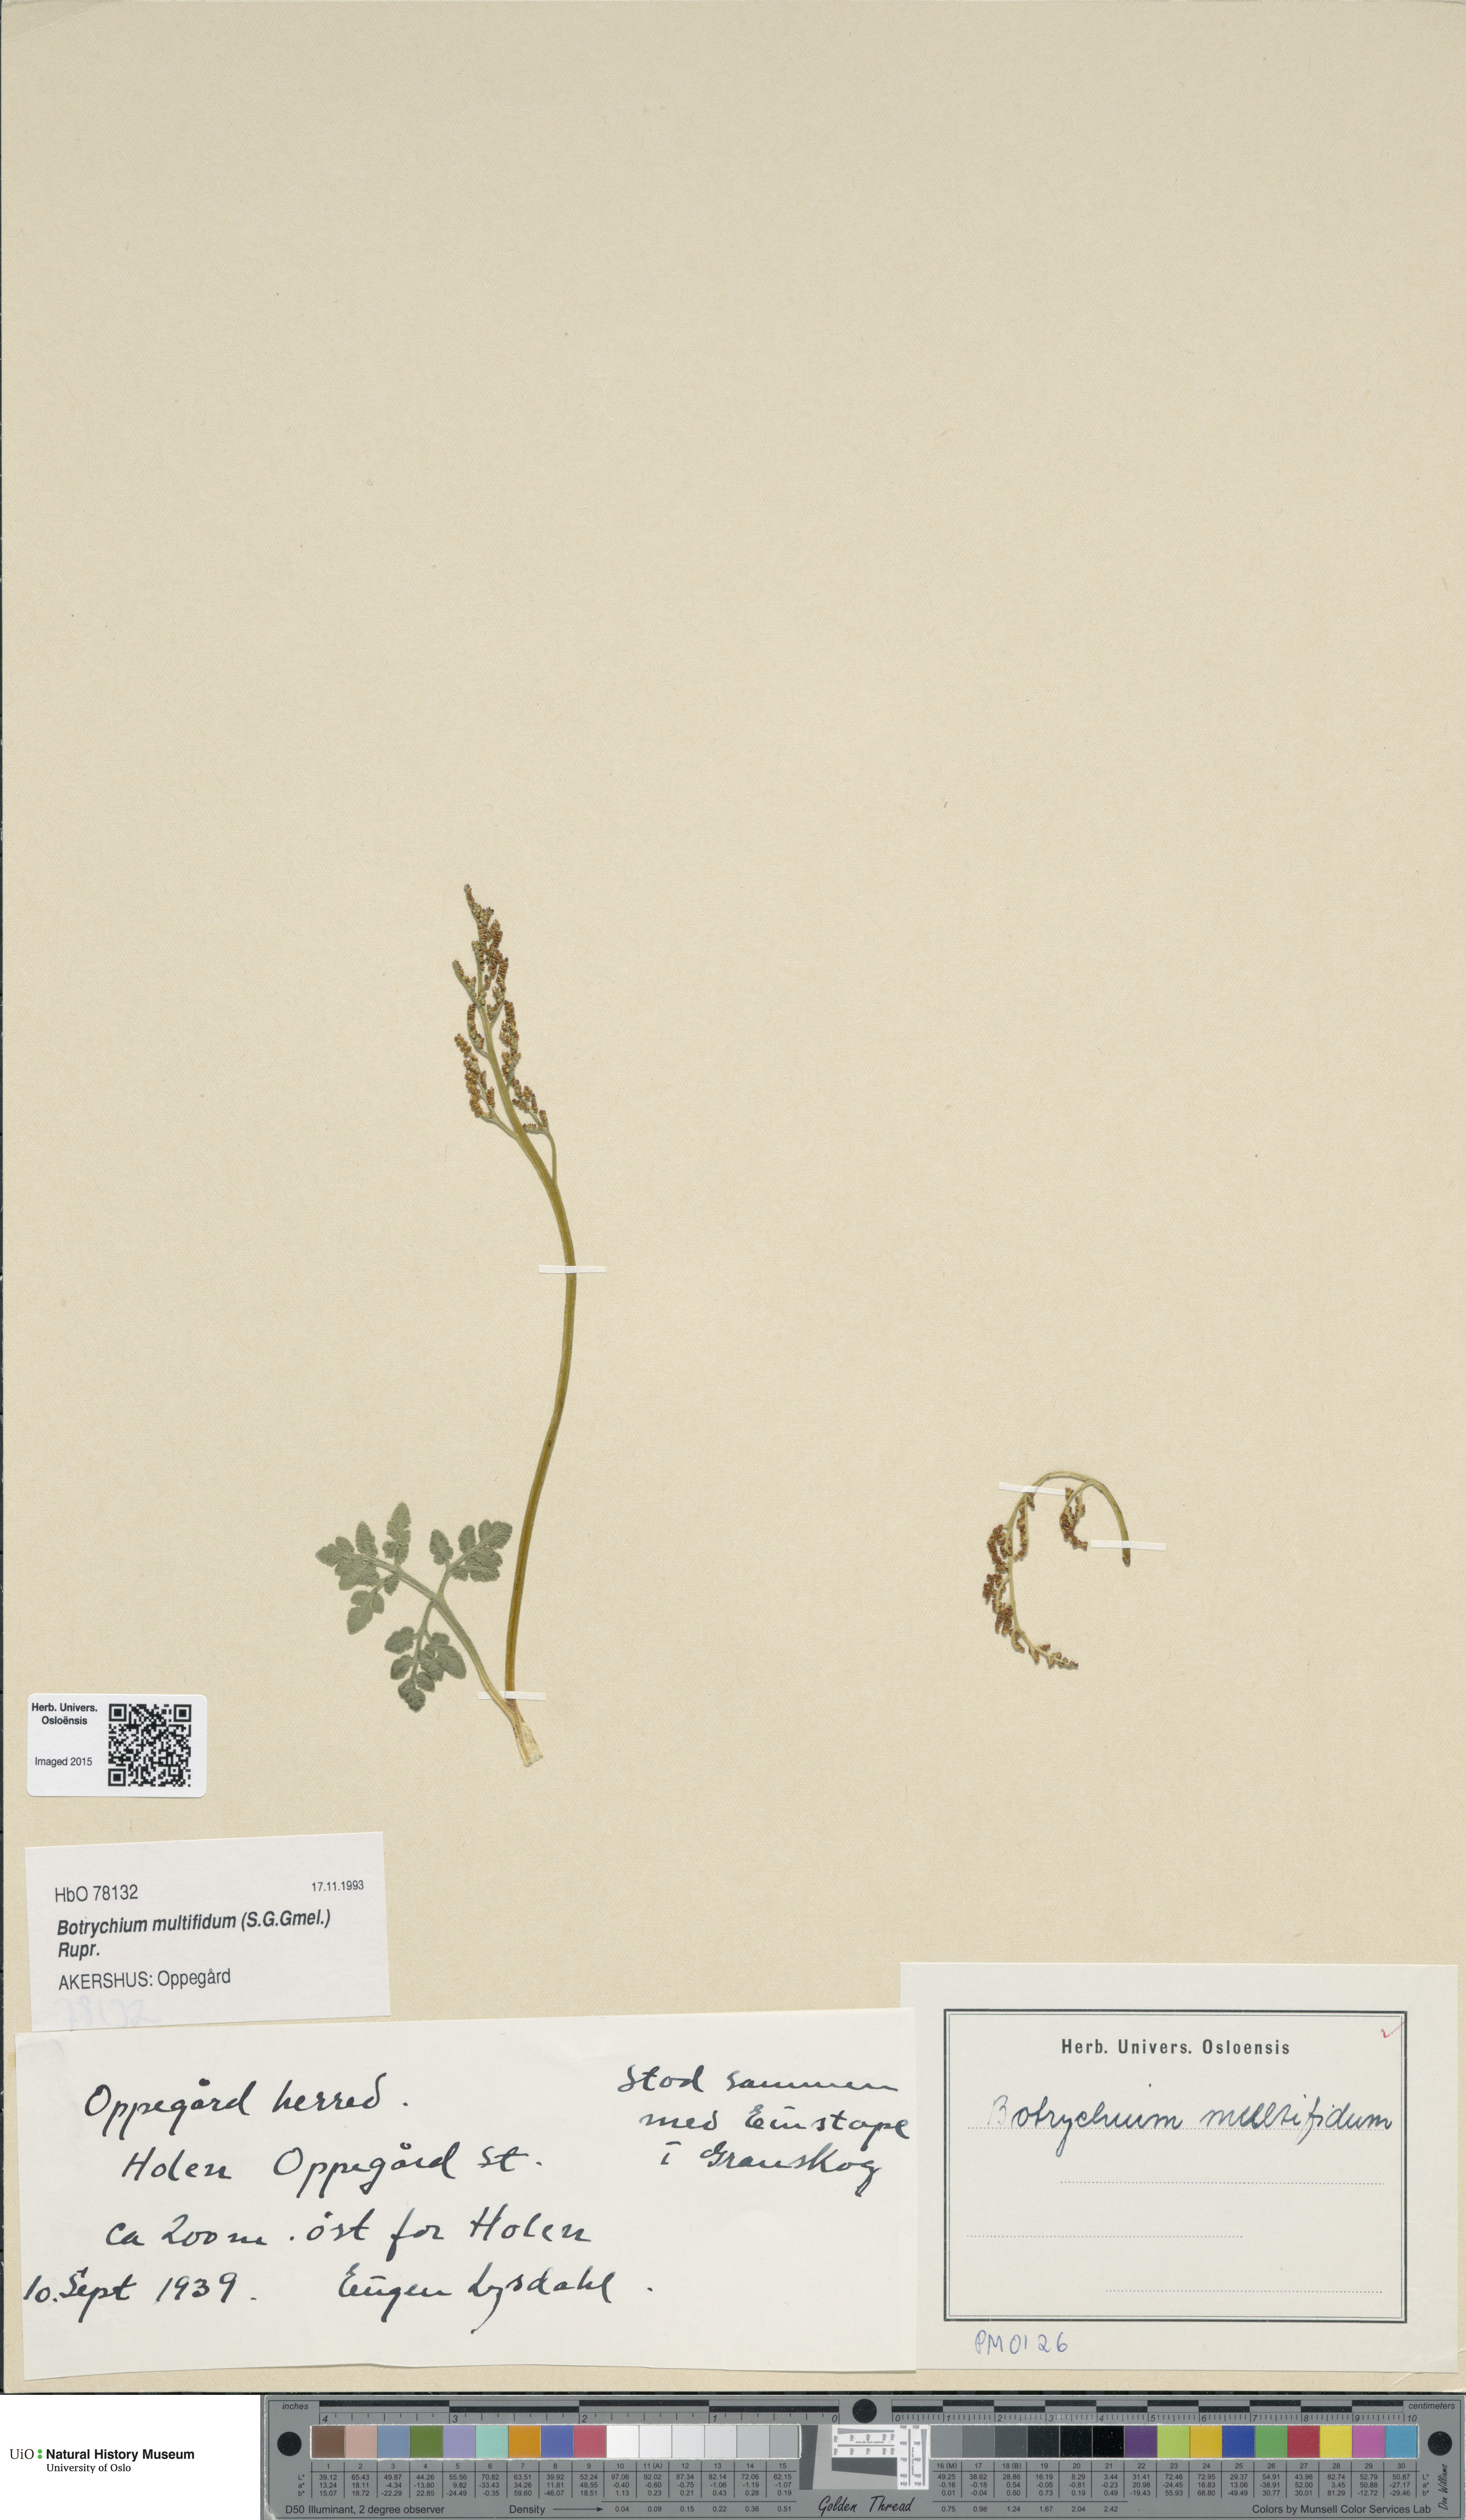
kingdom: Plantae
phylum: Tracheophyta
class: Polypodiopsida
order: Ophioglossales
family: Ophioglossaceae
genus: Sceptridium
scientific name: Sceptridium multifidum
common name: Leathery grape fern
